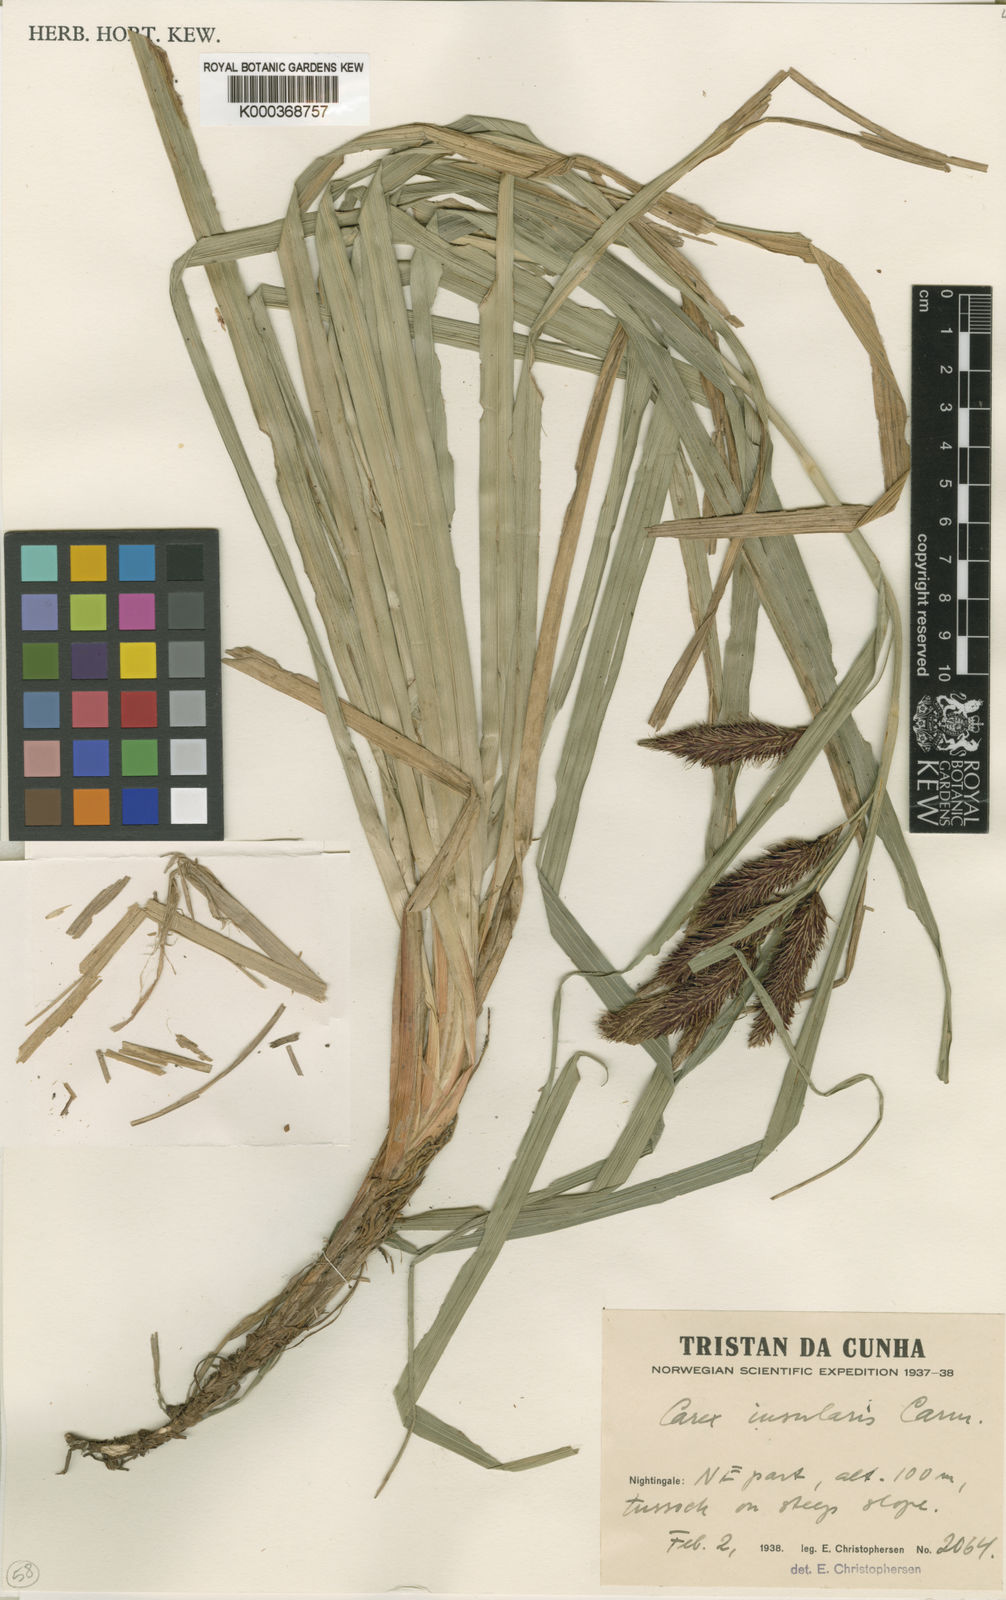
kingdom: Plantae
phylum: Tracheophyta
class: Liliopsida
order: Poales
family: Cyperaceae
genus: Carex
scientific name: Carex insularis
